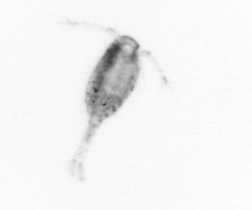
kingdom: Animalia
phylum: Arthropoda
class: Copepoda
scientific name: Copepoda
